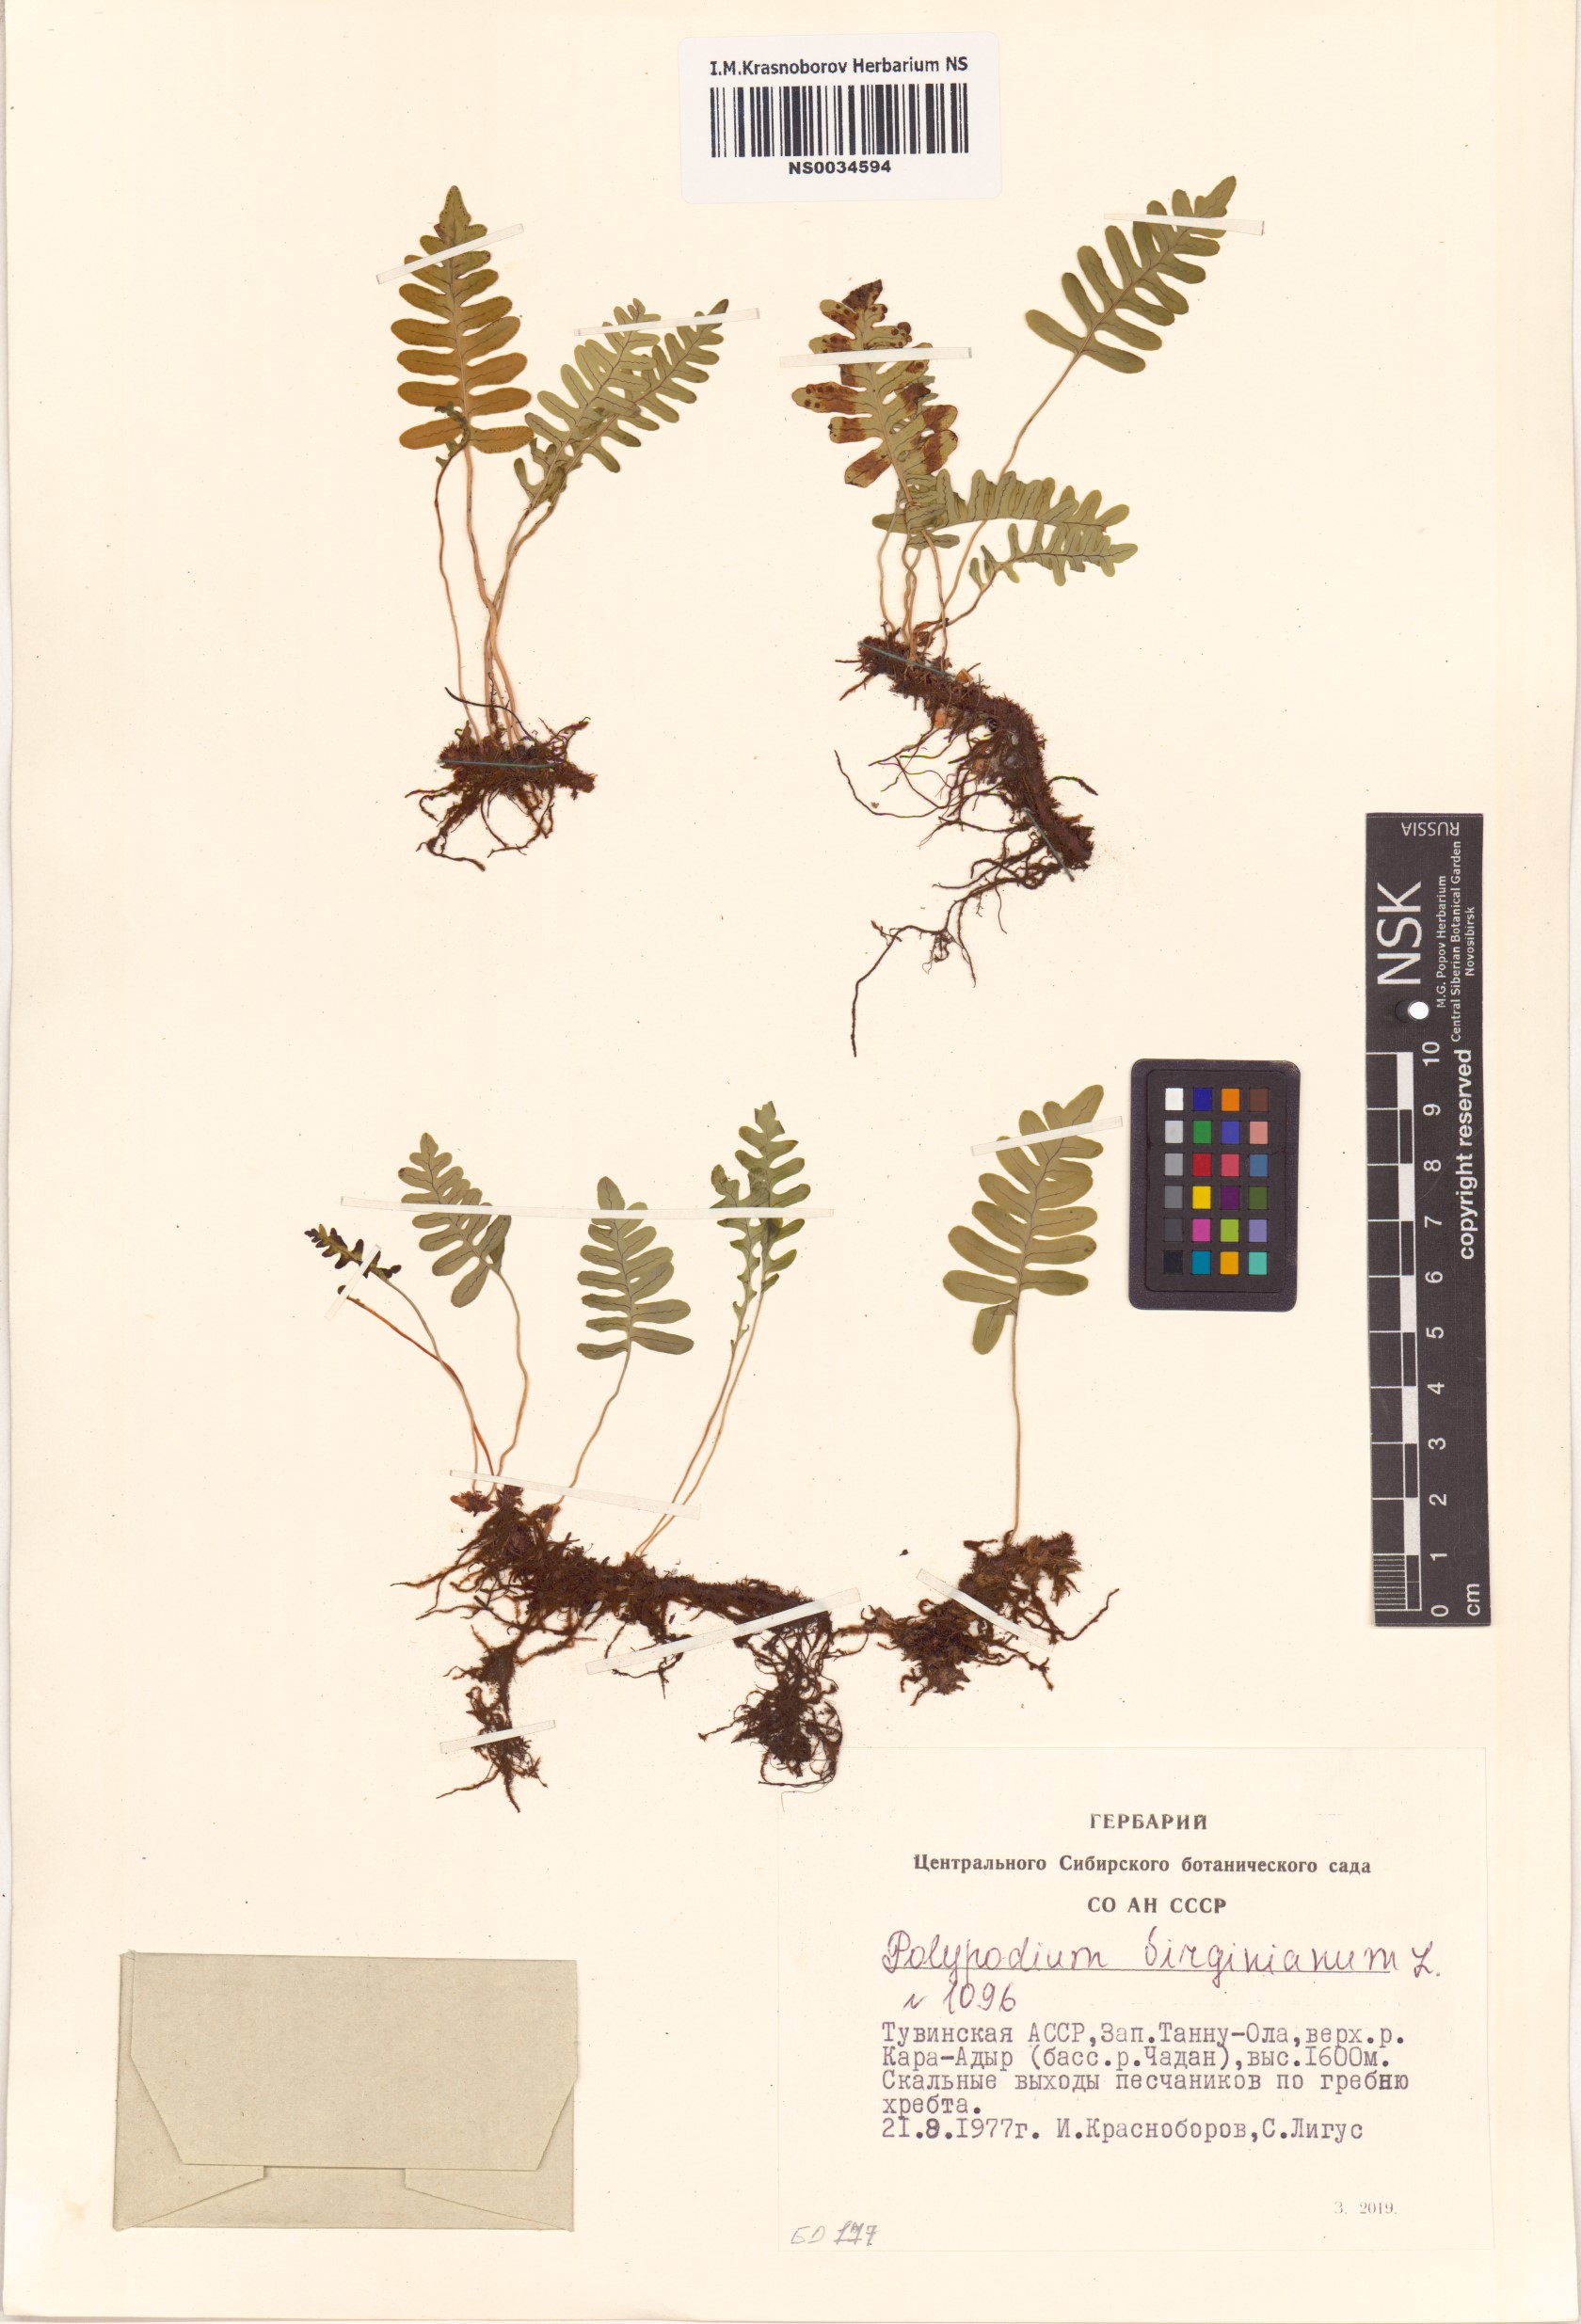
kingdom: Plantae
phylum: Tracheophyta
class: Polypodiopsida
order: Polypodiales
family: Polypodiaceae
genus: Polypodium
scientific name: Polypodium virginianum
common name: American wall fern
